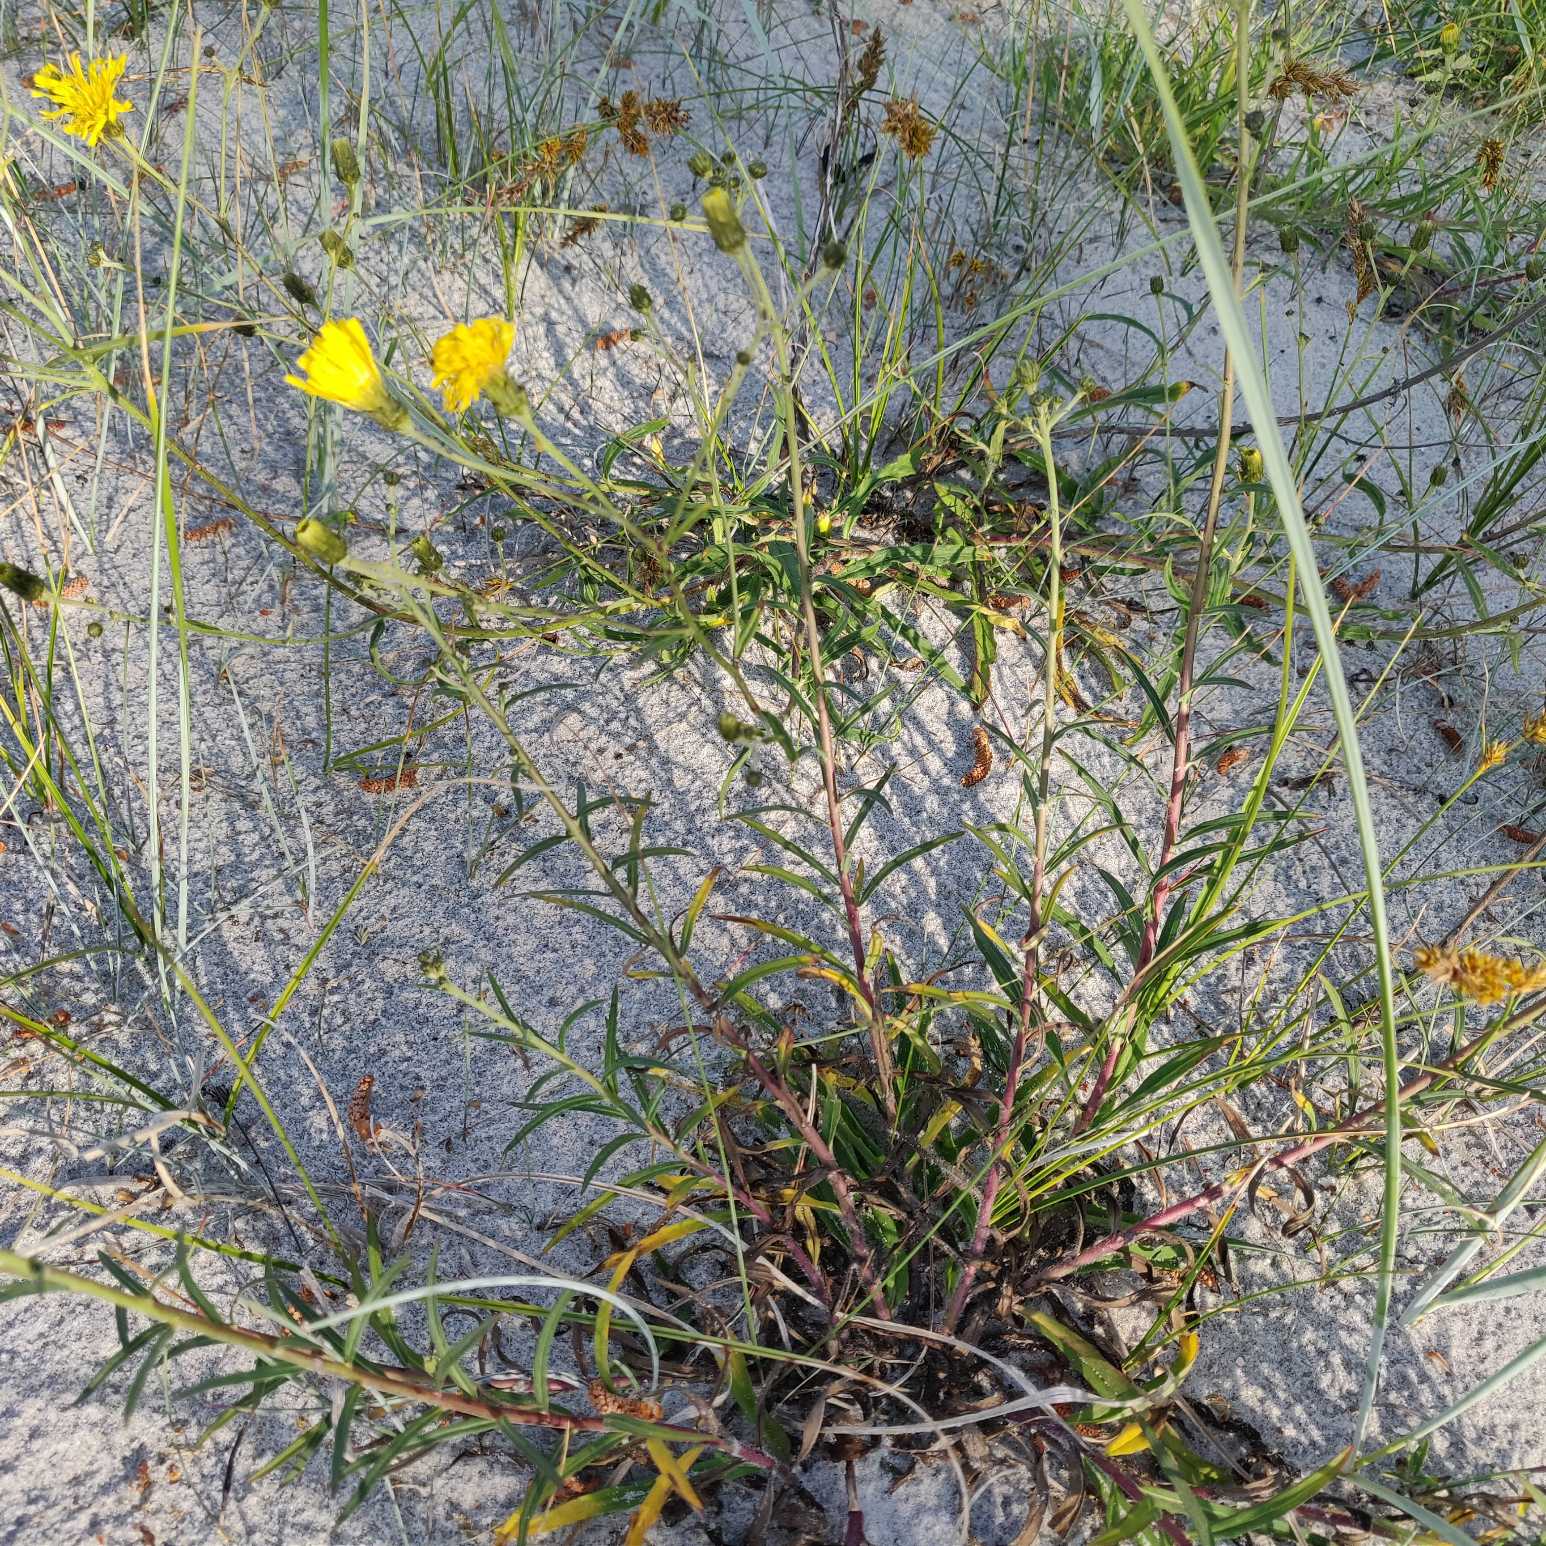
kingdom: Plantae
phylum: Tracheophyta
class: Magnoliopsida
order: Asterales
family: Asteraceae
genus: Hieracium
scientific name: Hieracium umbellatum
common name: Smalbladet høgeurt
